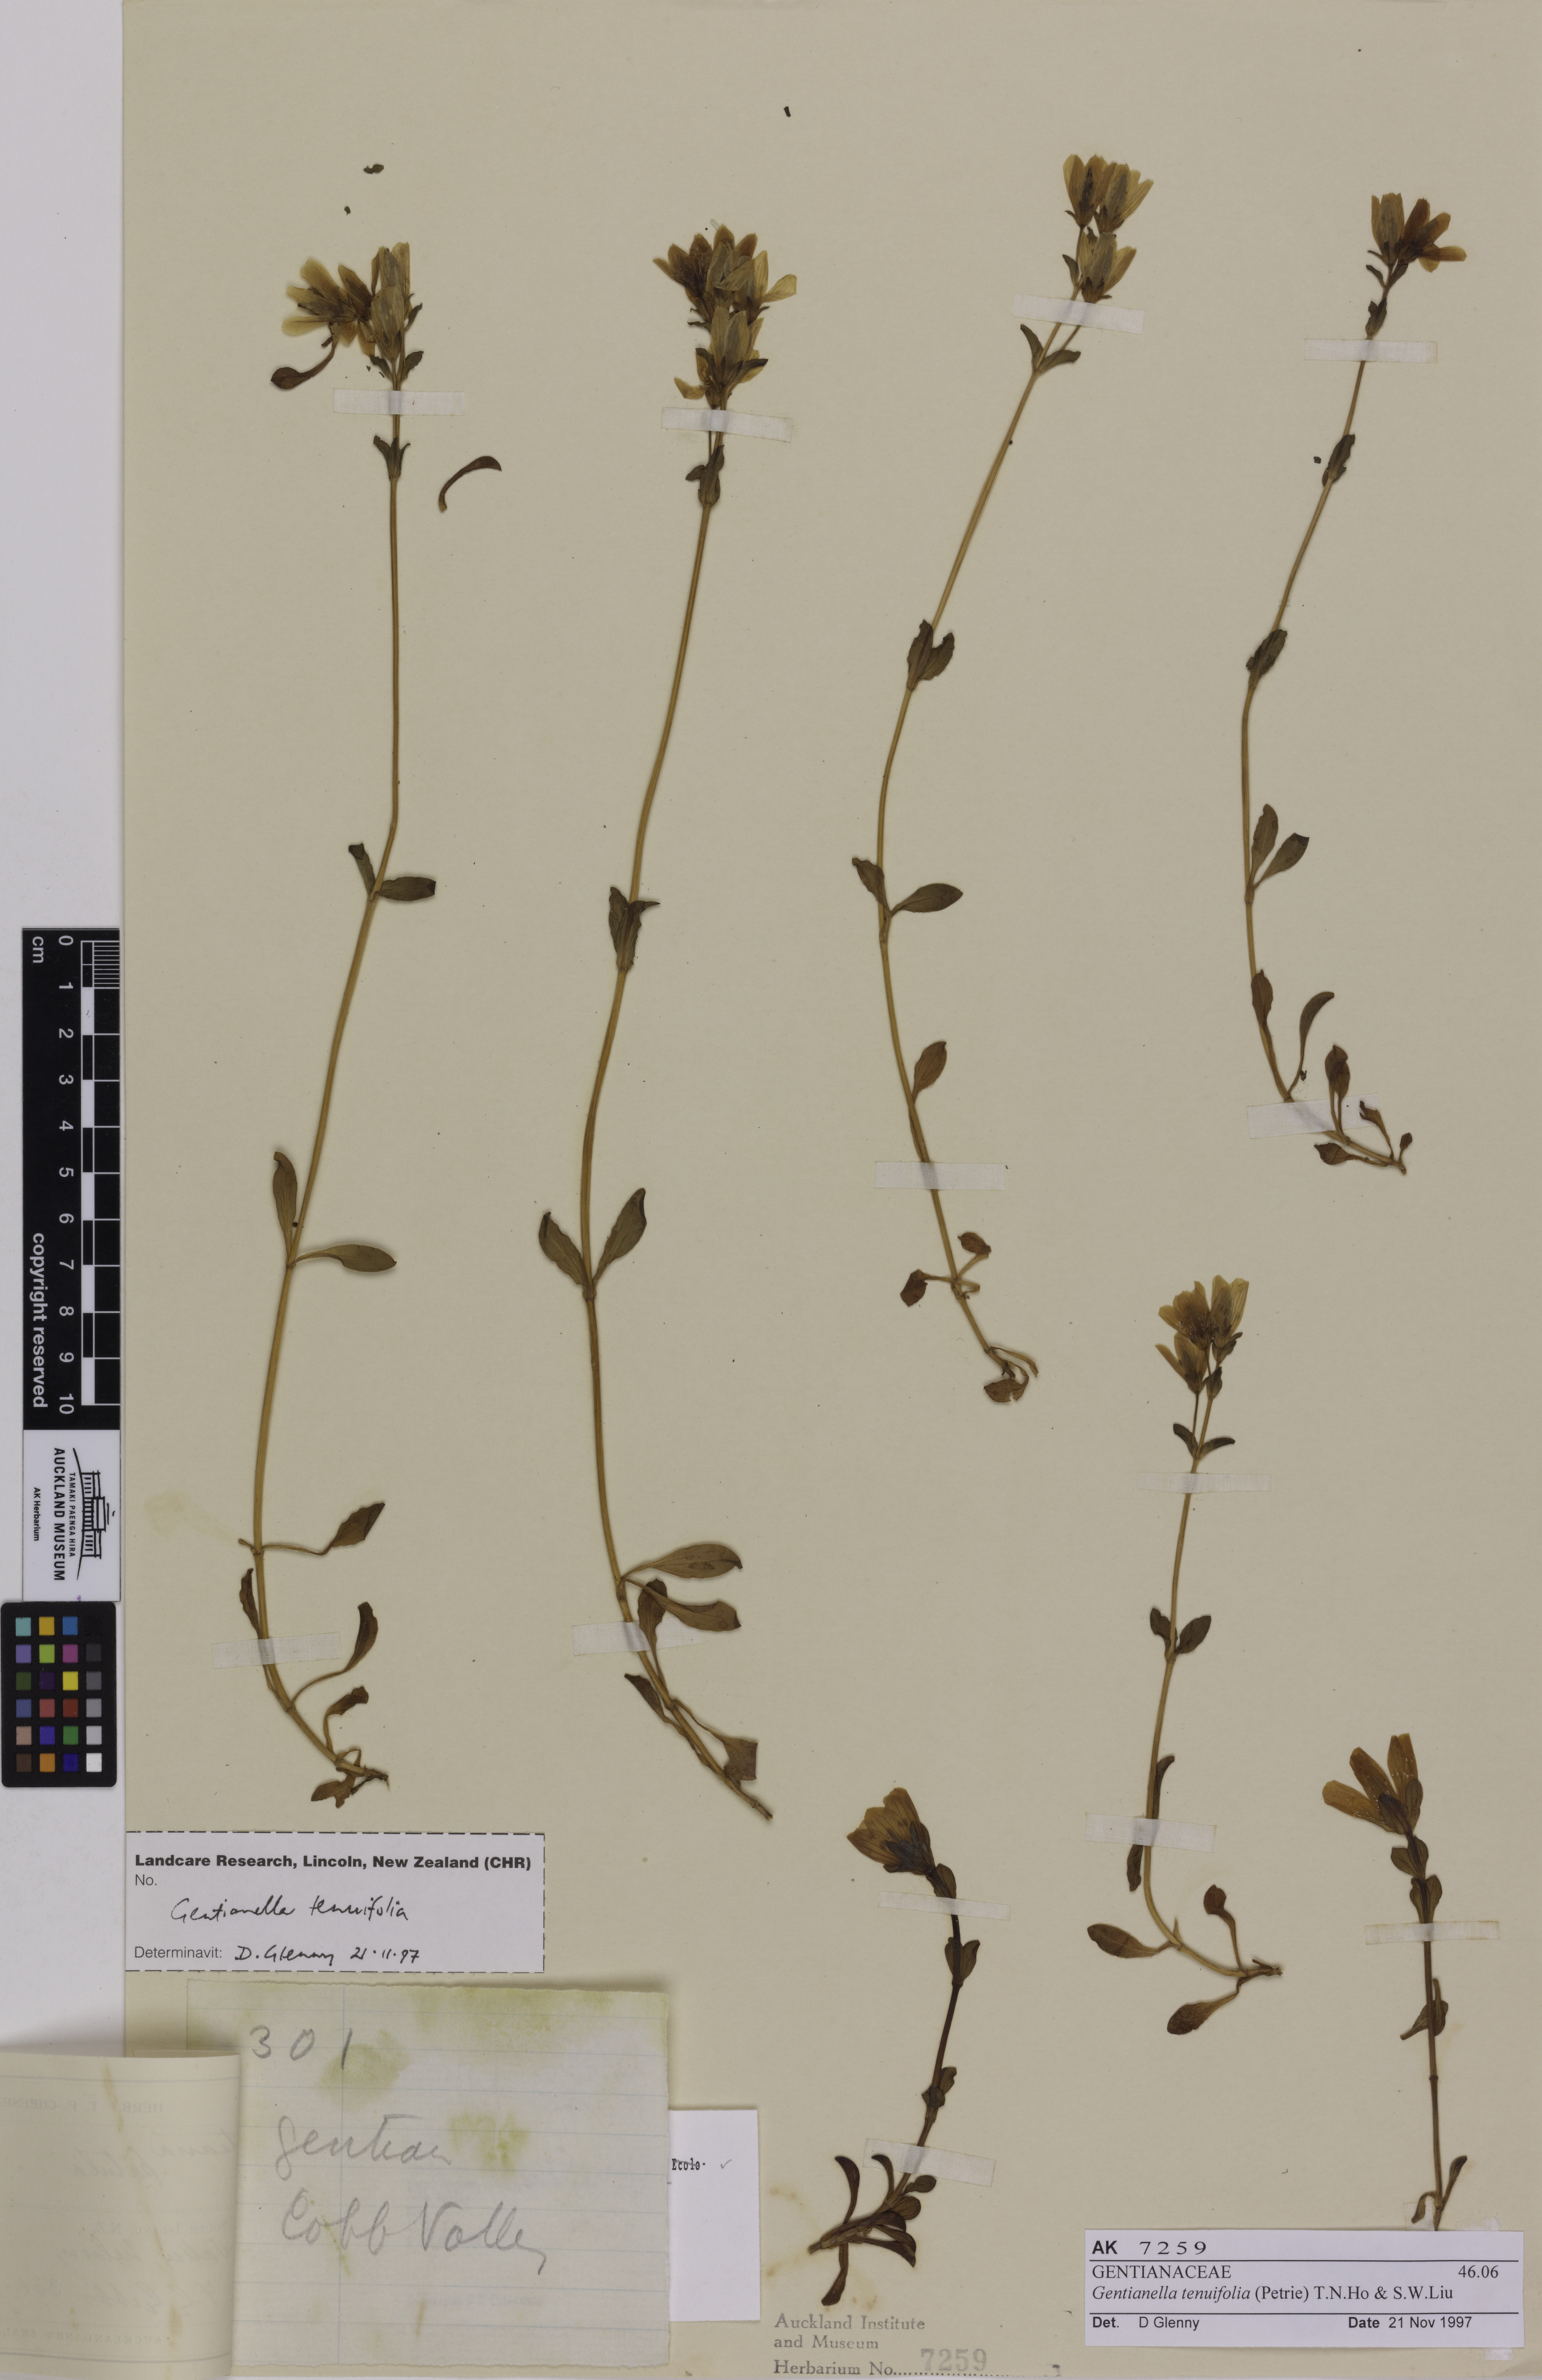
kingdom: Plantae
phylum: Tracheophyta
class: Magnoliopsida
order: Gentianales
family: Gentianaceae
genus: Gentianella
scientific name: Gentianella tenuifolia
